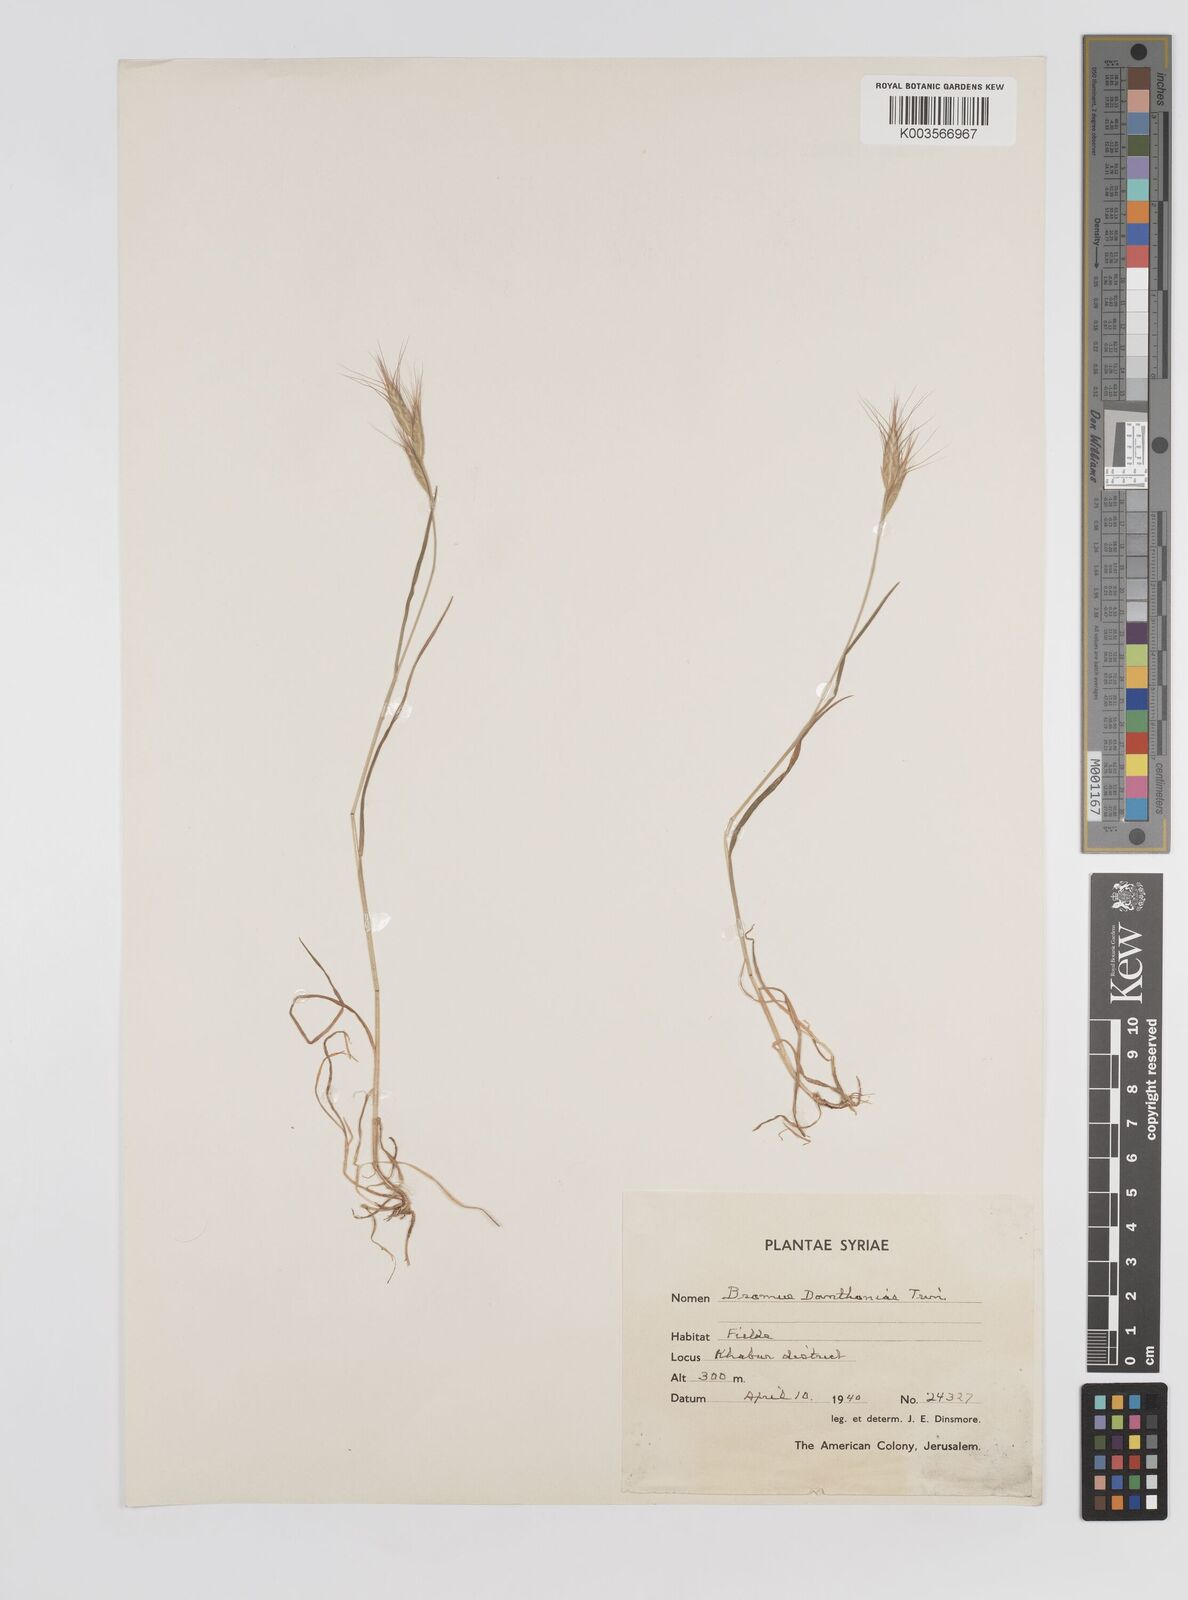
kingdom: Plantae
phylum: Tracheophyta
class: Liliopsida
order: Poales
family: Poaceae
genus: Bromus
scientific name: Bromus danthoniae
